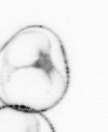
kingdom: Chromista
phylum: Myzozoa
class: Dinophyceae
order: Noctilucales
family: Noctilucaceae
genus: Noctiluca
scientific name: Noctiluca scintillans
